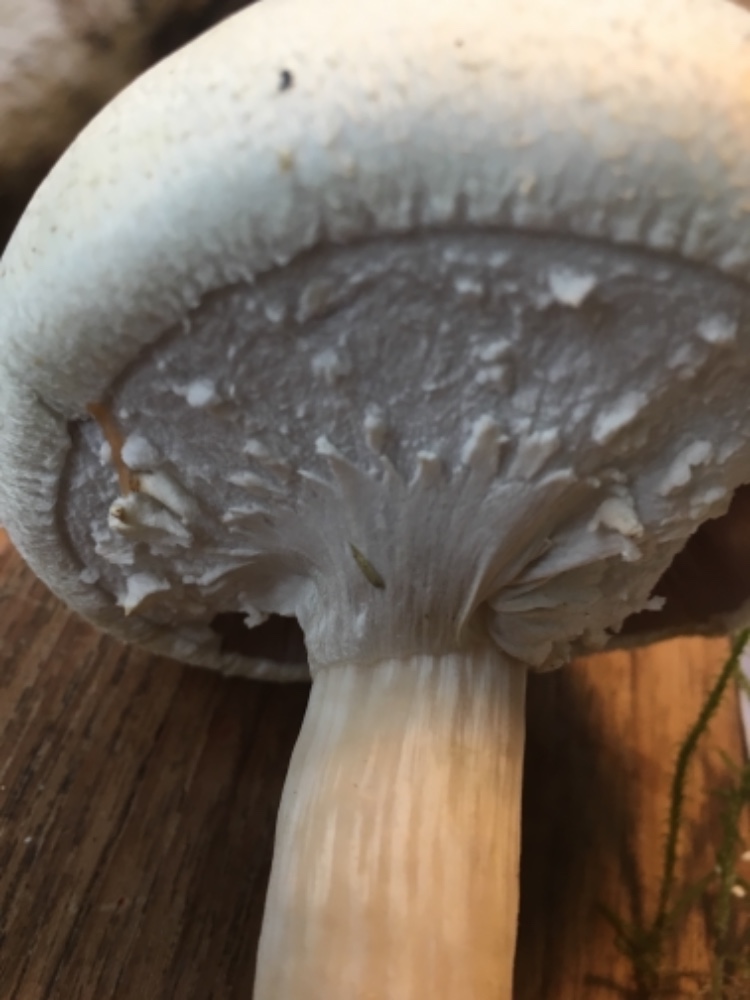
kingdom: Fungi
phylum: Basidiomycota
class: Agaricomycetes
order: Agaricales
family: Agaricaceae
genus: Agaricus
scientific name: Agaricus sylvicola
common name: gulhvid champignon
